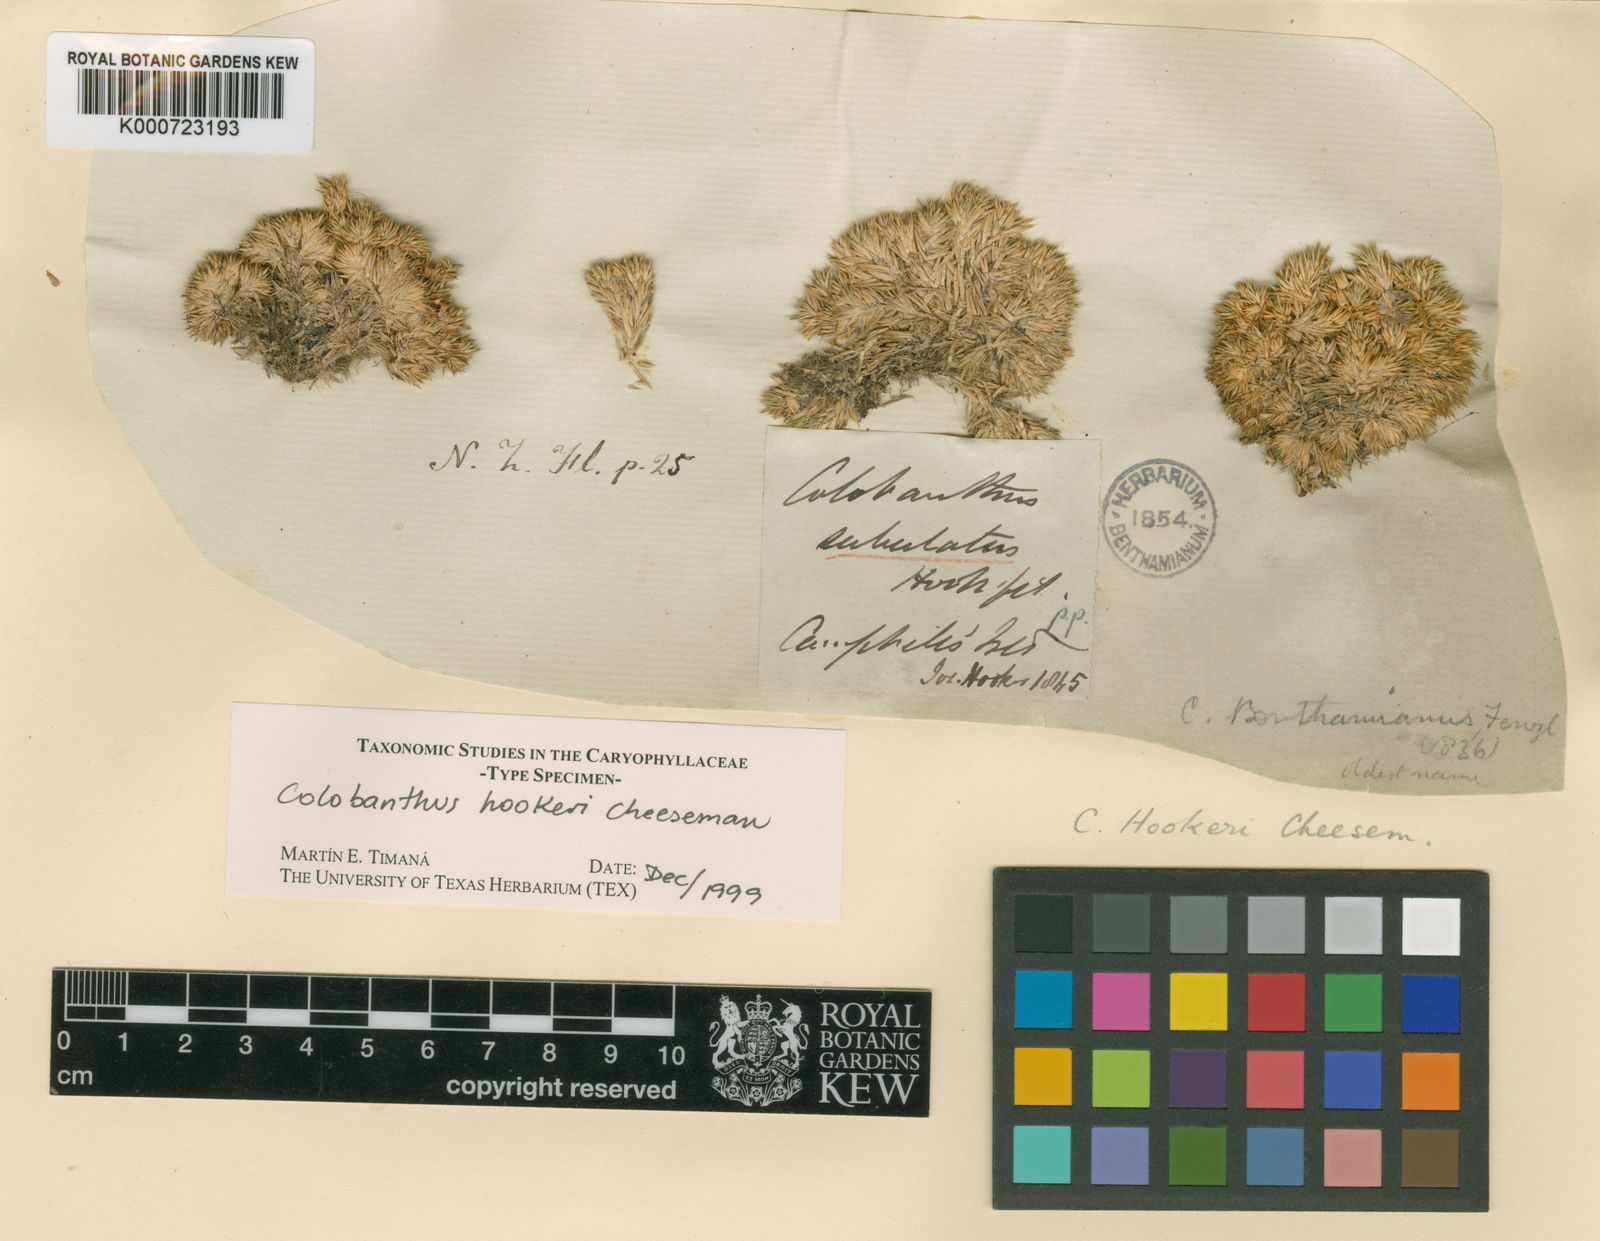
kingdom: Plantae
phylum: Tracheophyta
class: Magnoliopsida
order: Caryophyllales
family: Caryophyllaceae
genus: Colobanthus
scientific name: Colobanthus hookeri
